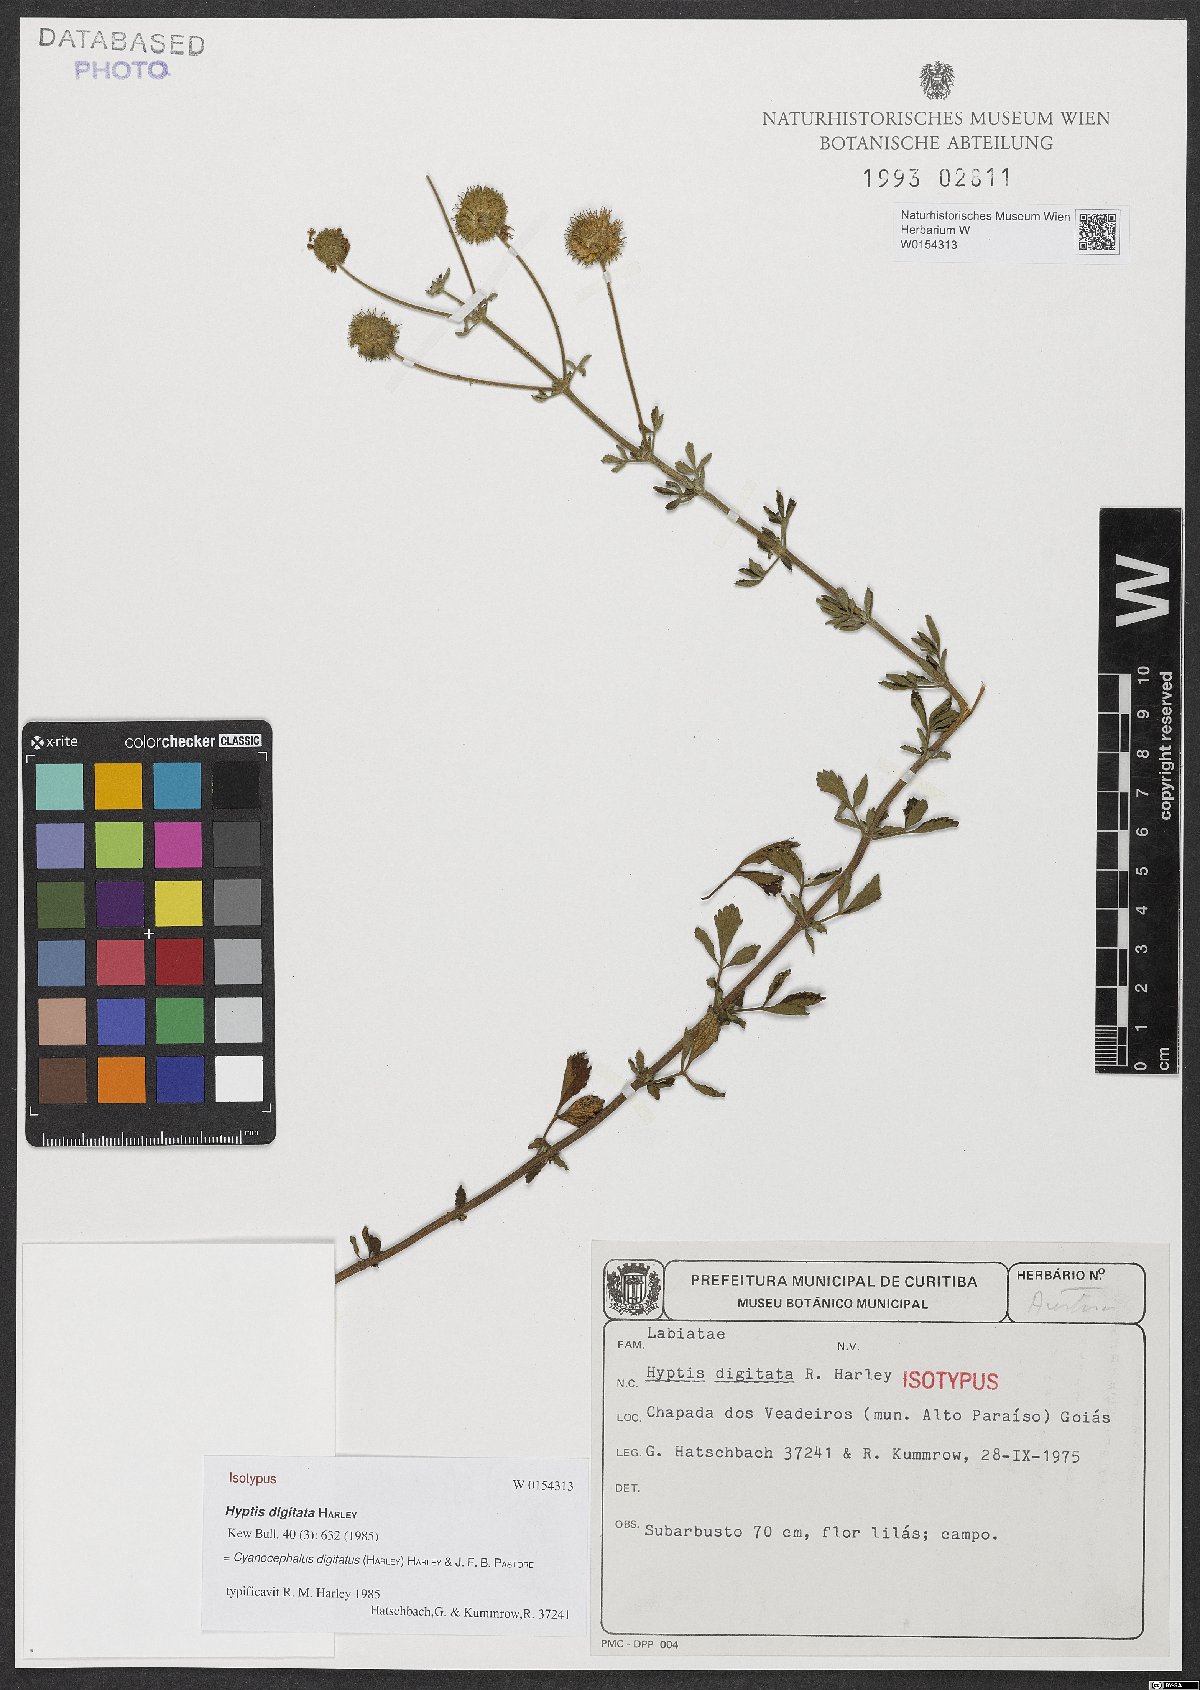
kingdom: Plantae
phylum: Tracheophyta
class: Magnoliopsida
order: Lamiales
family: Lamiaceae
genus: Cyanocephalus
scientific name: Cyanocephalus digitatus
